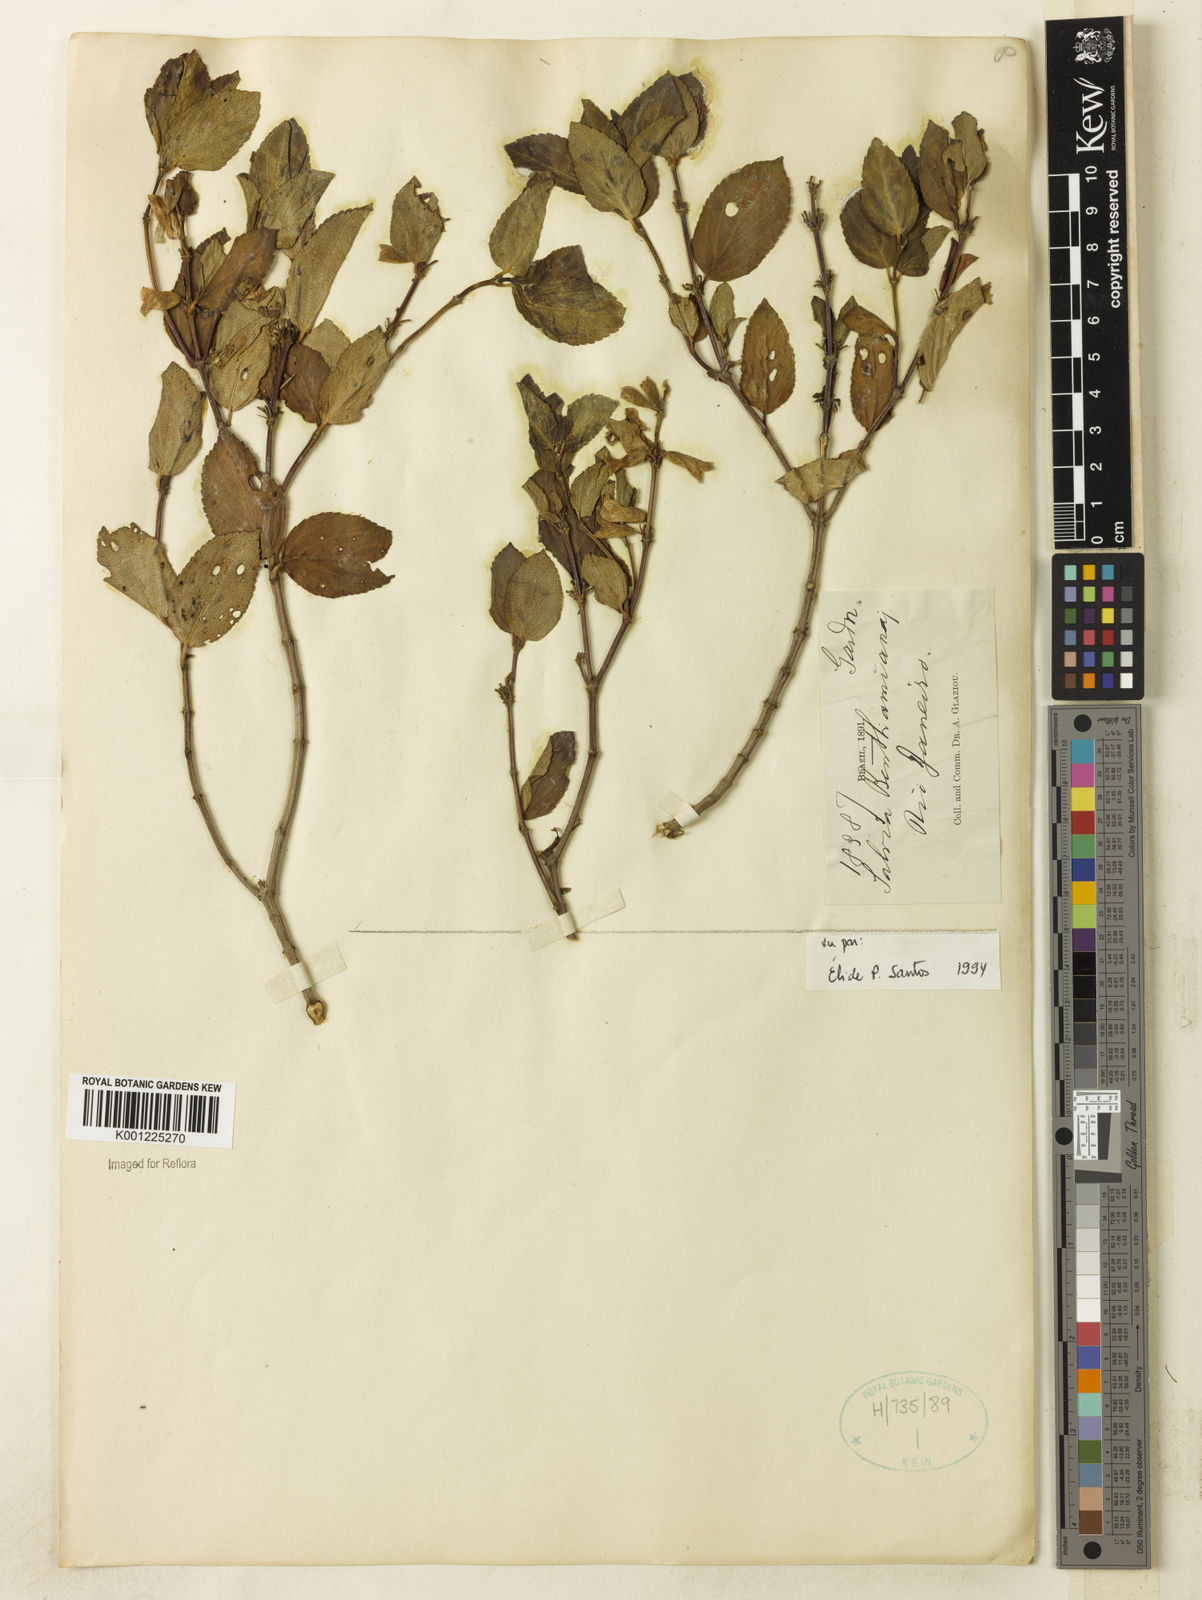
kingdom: Plantae
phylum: Tracheophyta
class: Magnoliopsida
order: Lamiales
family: Lamiaceae
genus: Salvia
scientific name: Salvia
